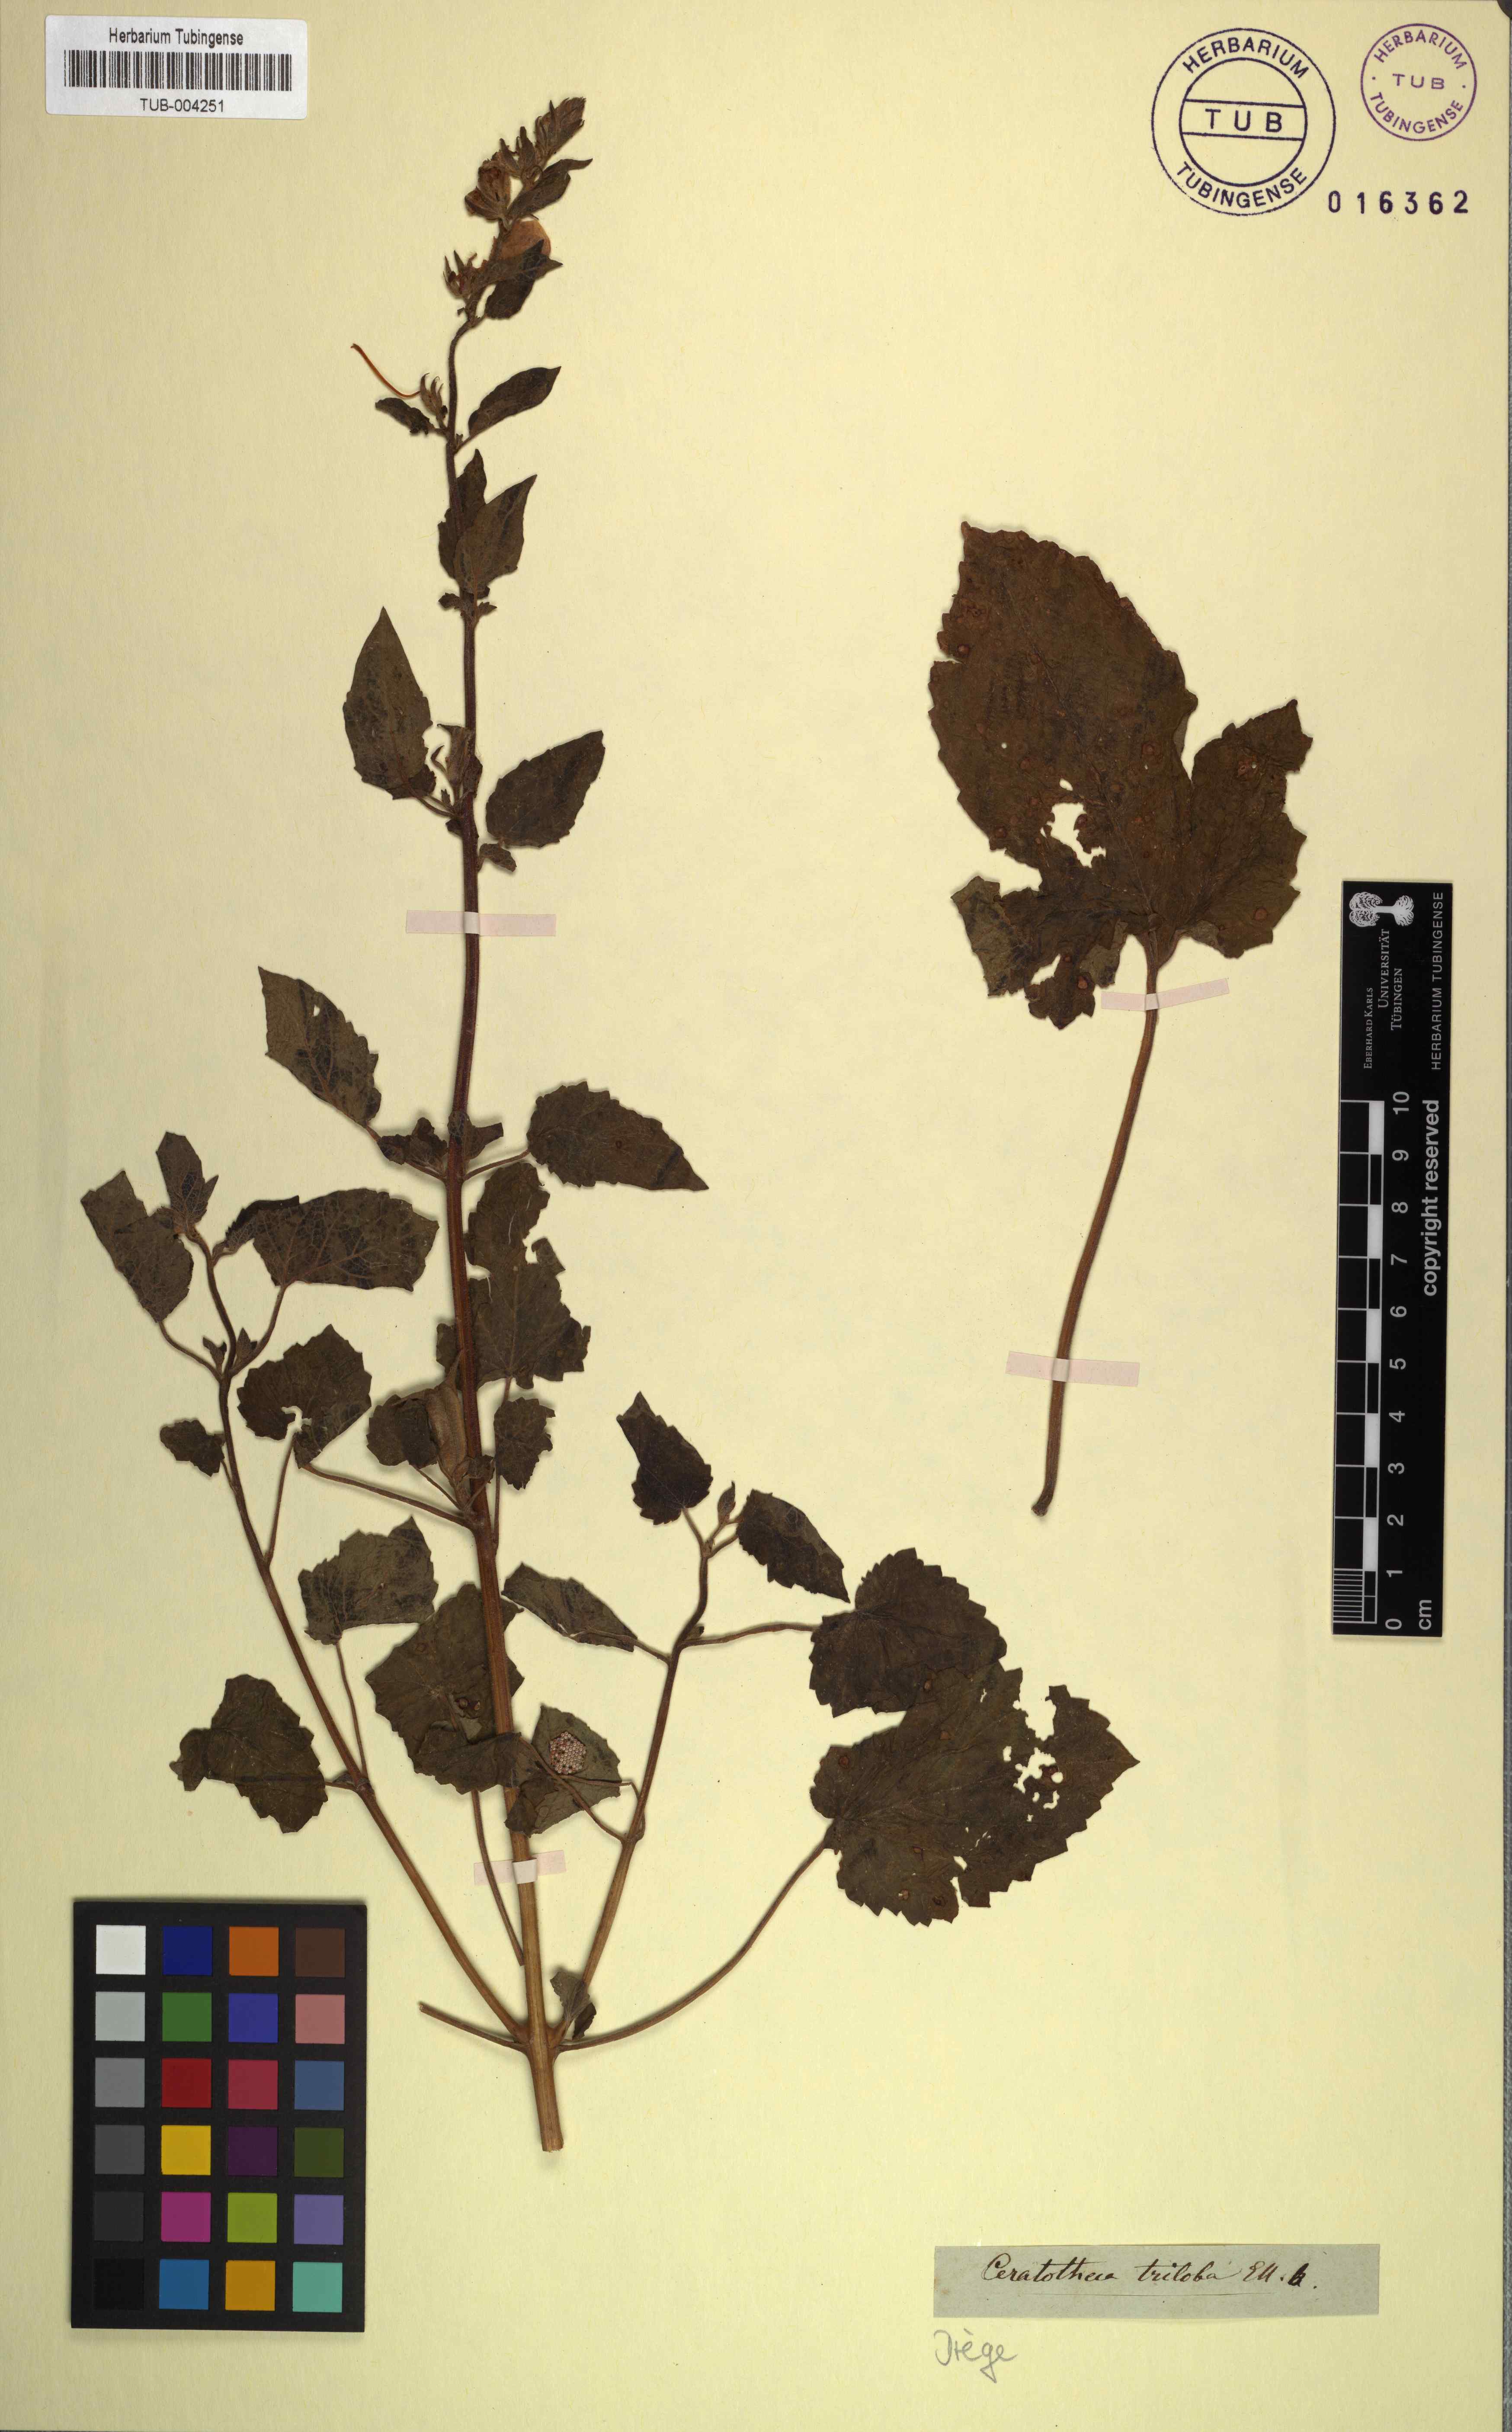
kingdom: Plantae
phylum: Tracheophyta
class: Magnoliopsida
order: Lamiales
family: Pedaliaceae
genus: Sesamum
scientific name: Sesamum trilobum
